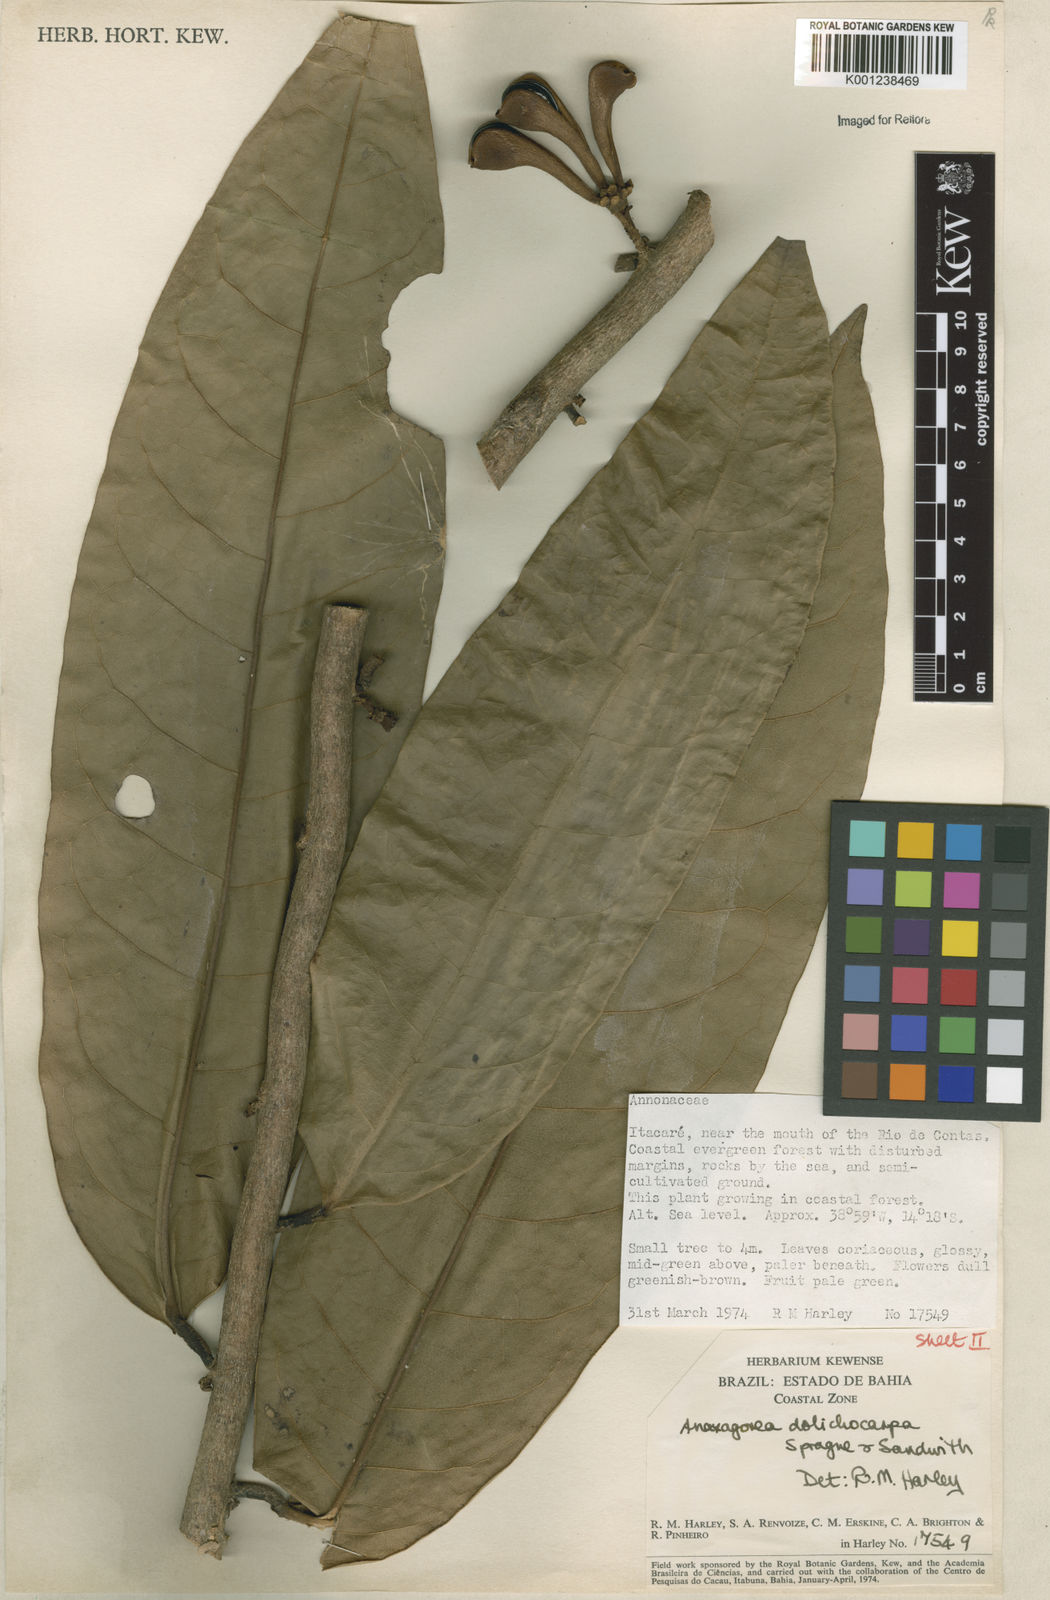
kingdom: Plantae
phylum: Tracheophyta
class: Magnoliopsida
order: Magnoliales
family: Annonaceae
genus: Anaxagorea
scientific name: Anaxagorea dolichocarpa
